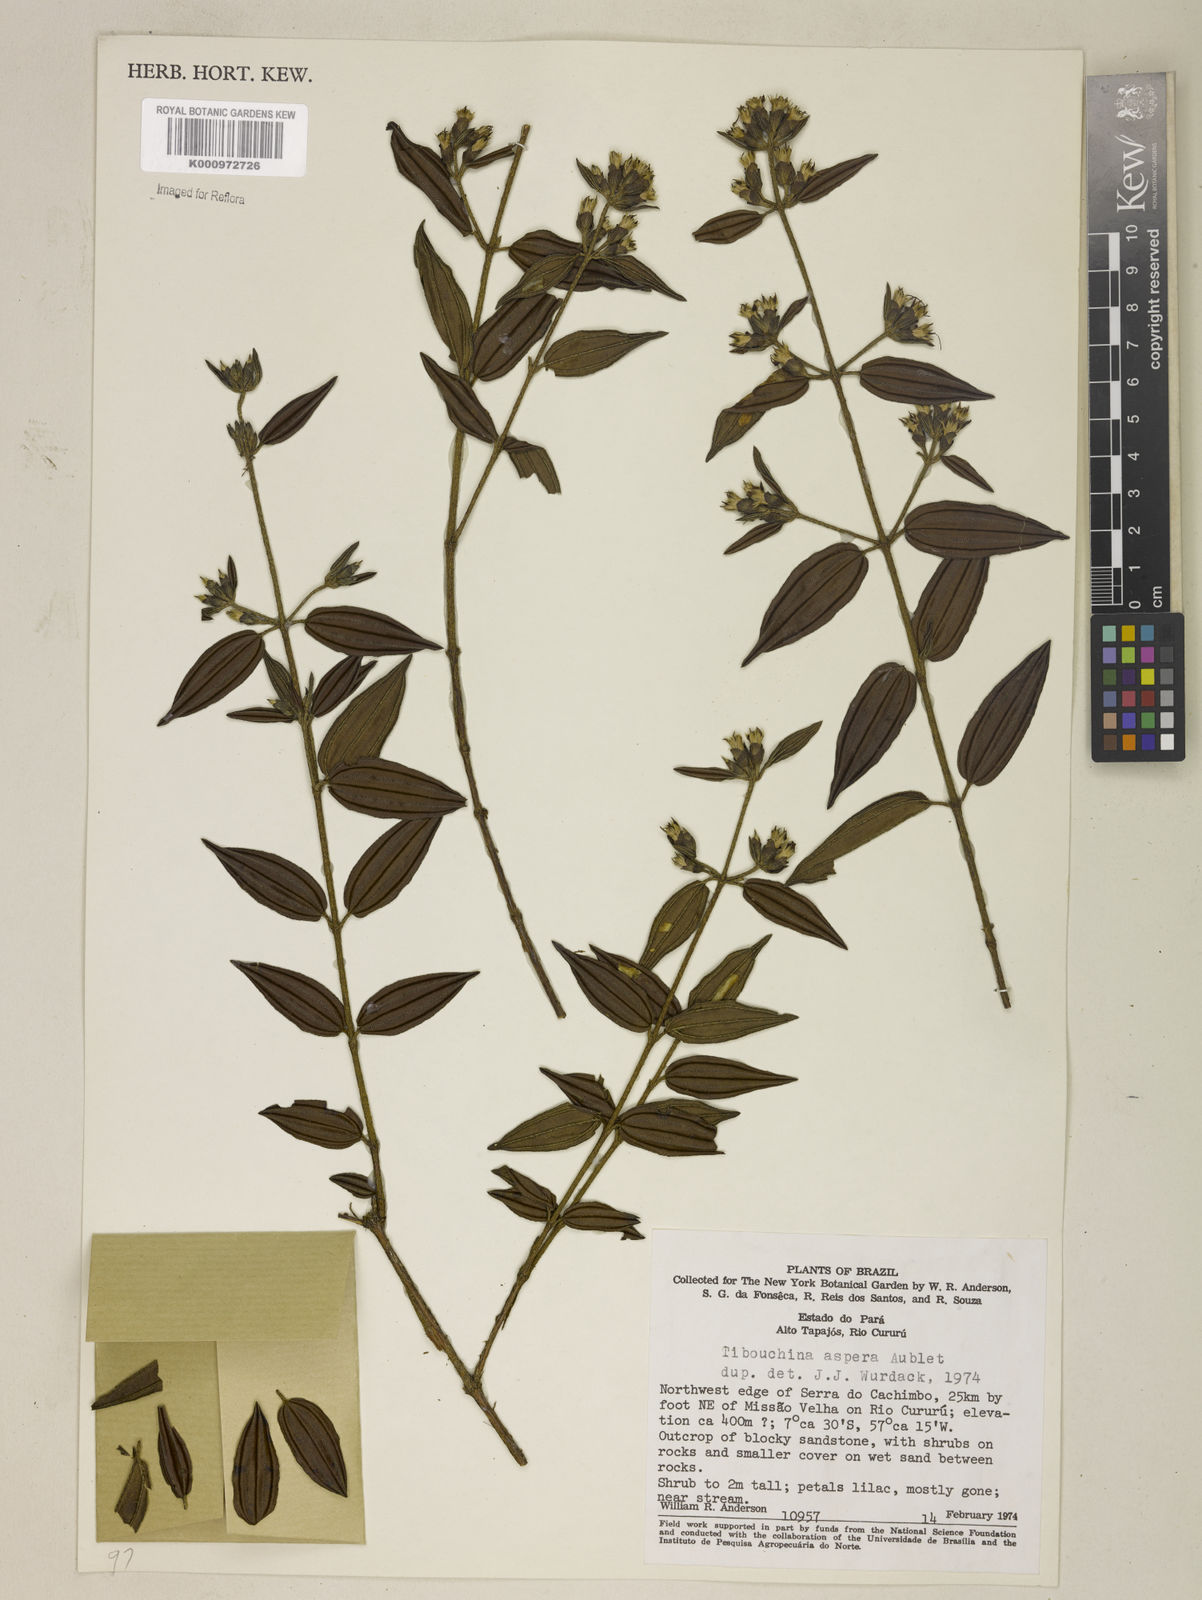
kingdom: Plantae
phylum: Tracheophyta
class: Magnoliopsida
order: Myrtales
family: Melastomataceae
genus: Tibouchina
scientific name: Tibouchina aspera
